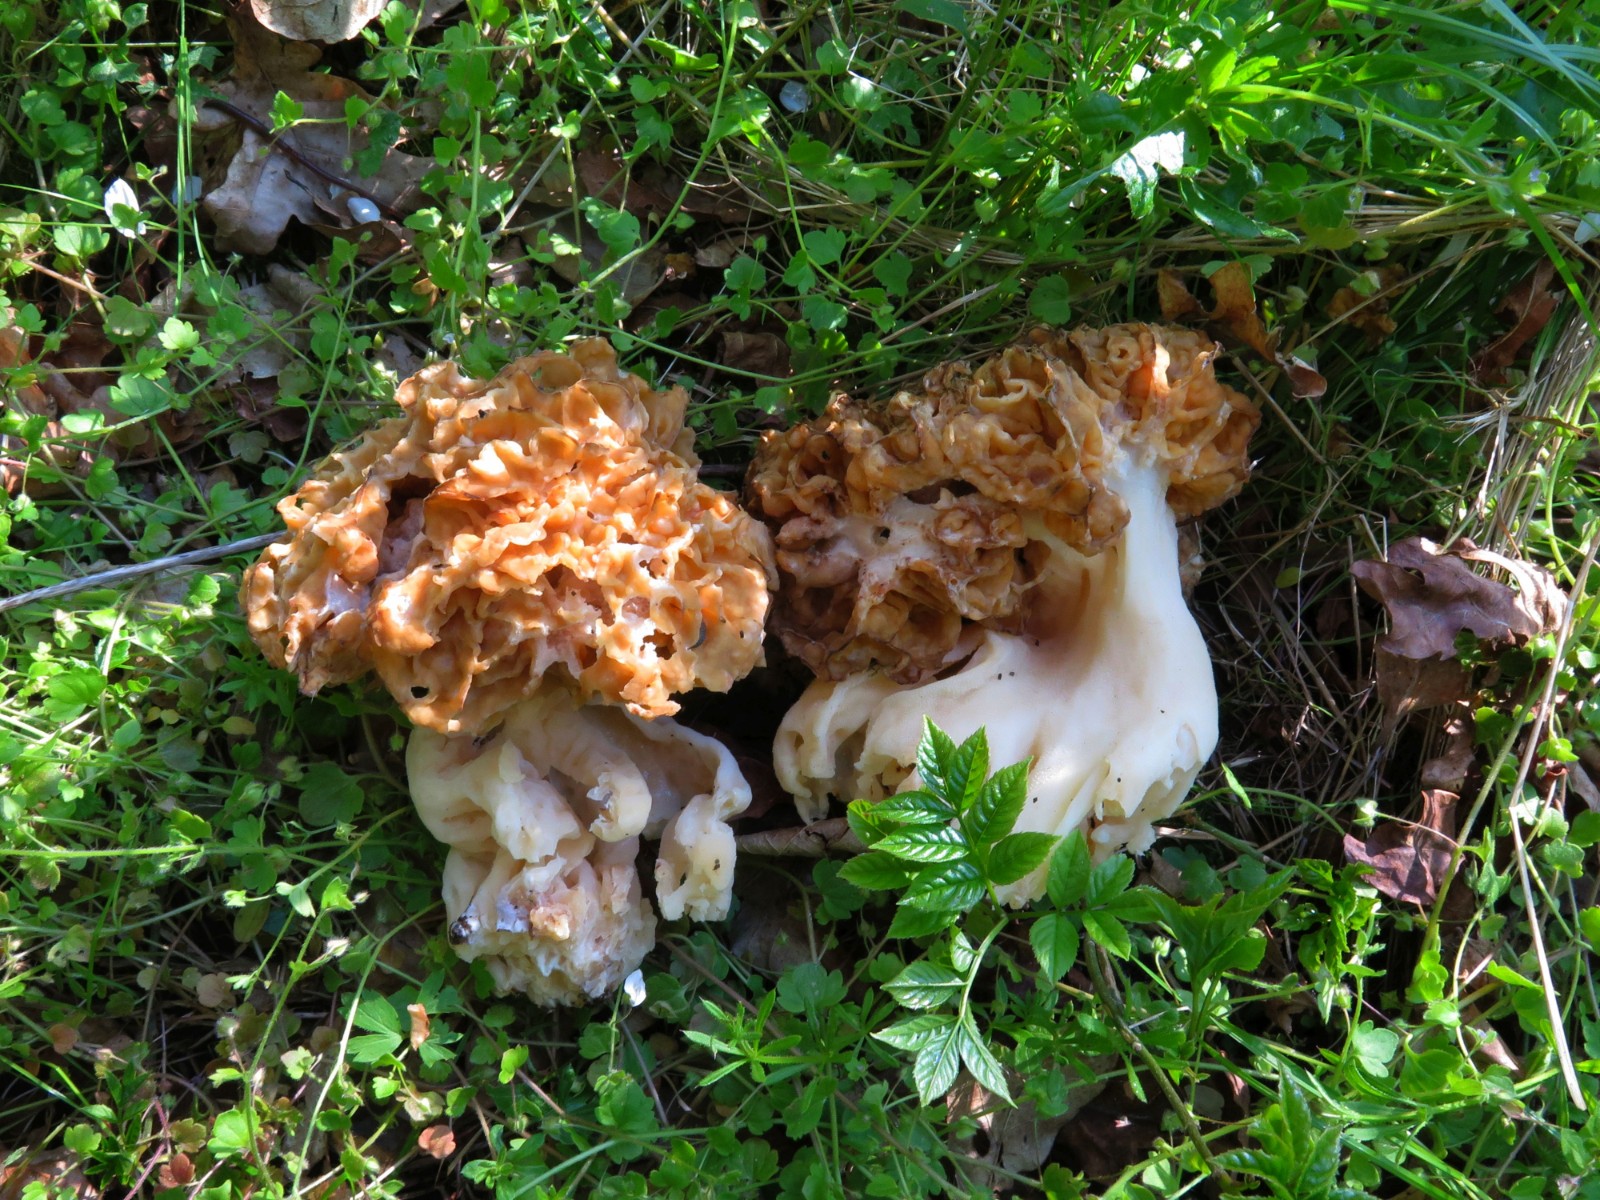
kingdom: Fungi
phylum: Ascomycota
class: Pezizomycetes
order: Pezizales
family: Morchellaceae
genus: Morchella
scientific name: Morchella esculenta
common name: spiselig morkel
